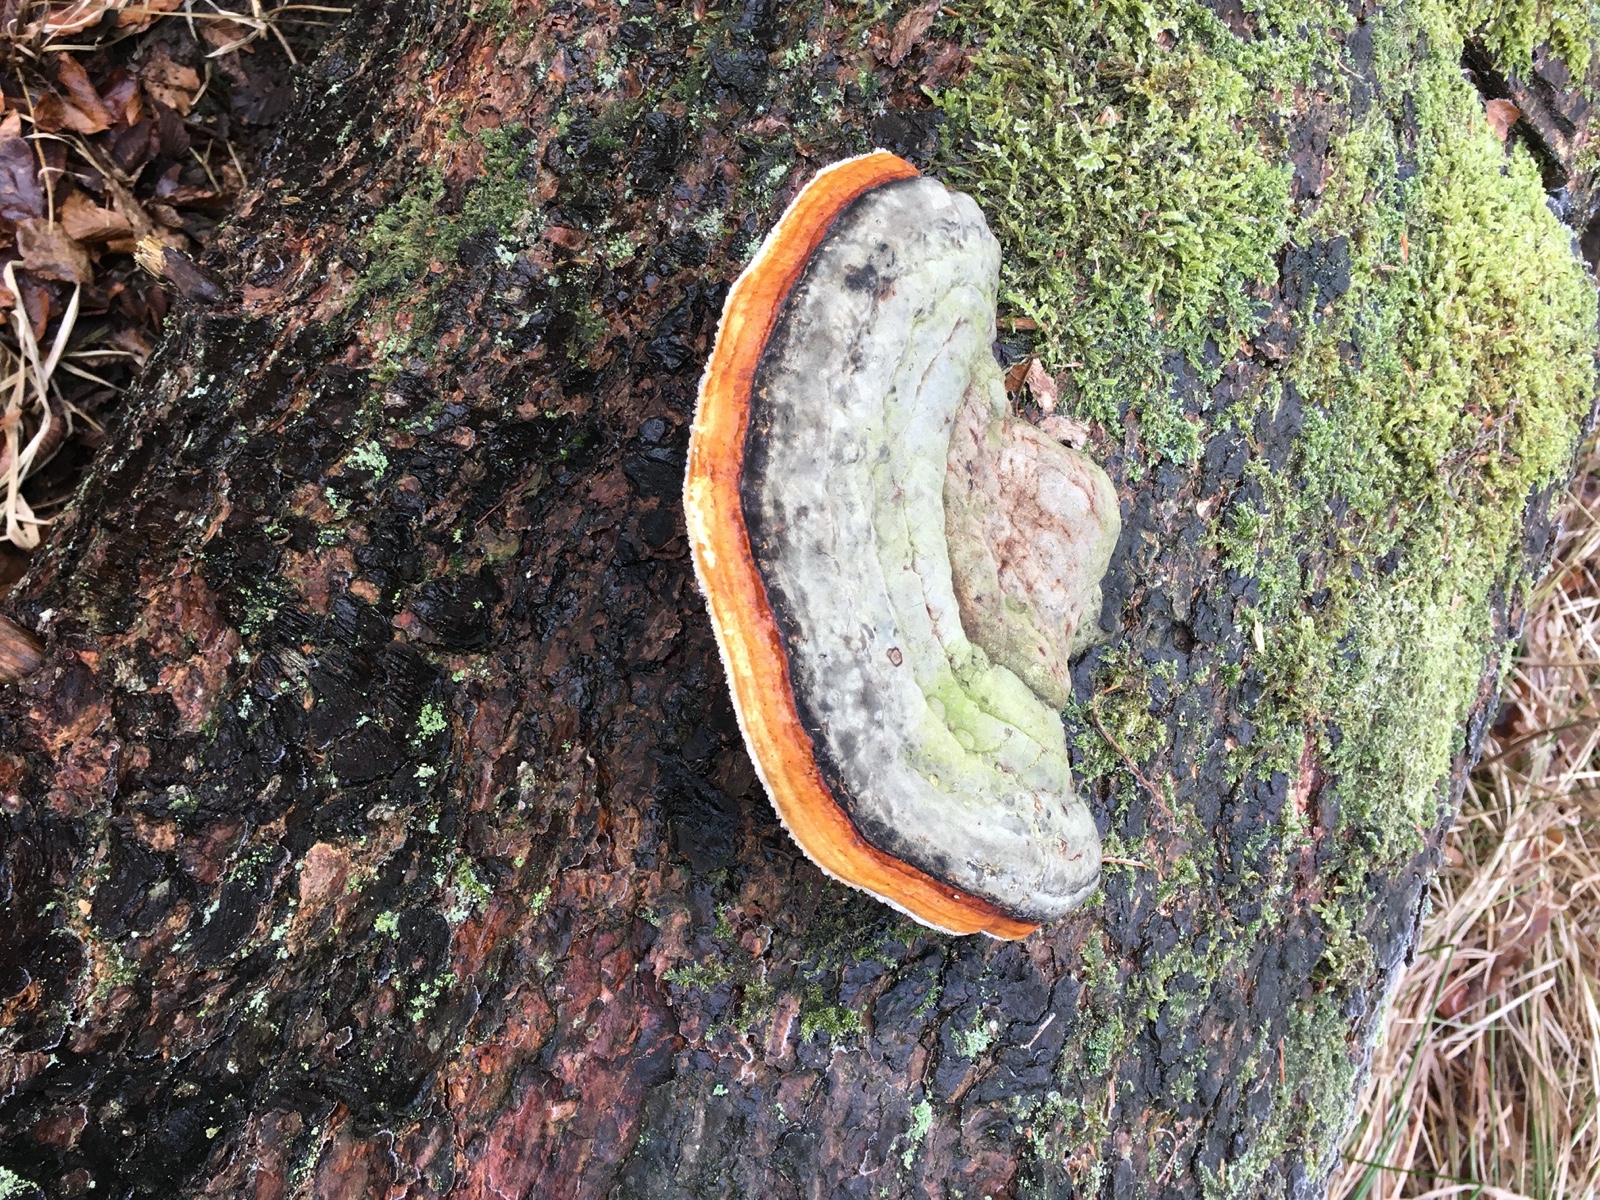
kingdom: Fungi
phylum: Basidiomycota
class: Agaricomycetes
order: Polyporales
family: Fomitopsidaceae
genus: Fomitopsis
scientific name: Fomitopsis pinicola
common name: randbæltet hovporesvamp
